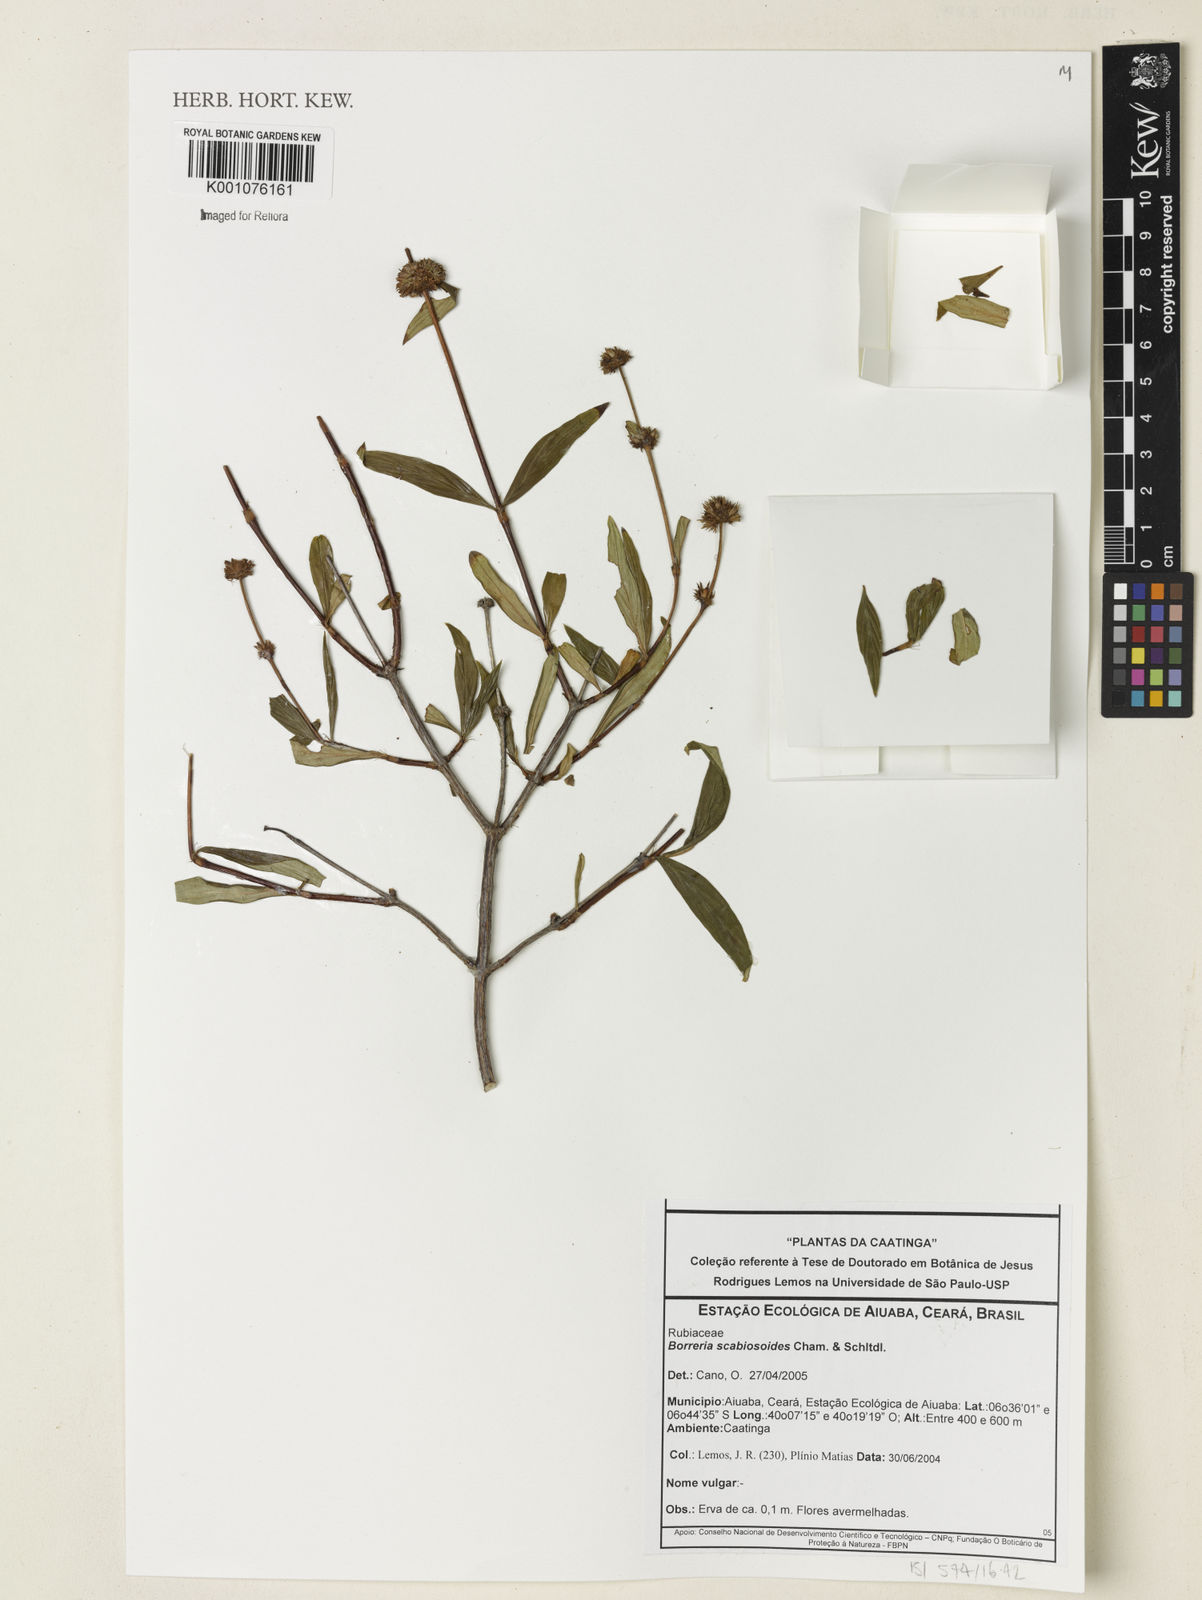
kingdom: Plantae
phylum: Tracheophyta
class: Magnoliopsida
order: Gentianales
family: Rubiaceae
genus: Spermacoce
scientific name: Spermacoce scabiosoides
